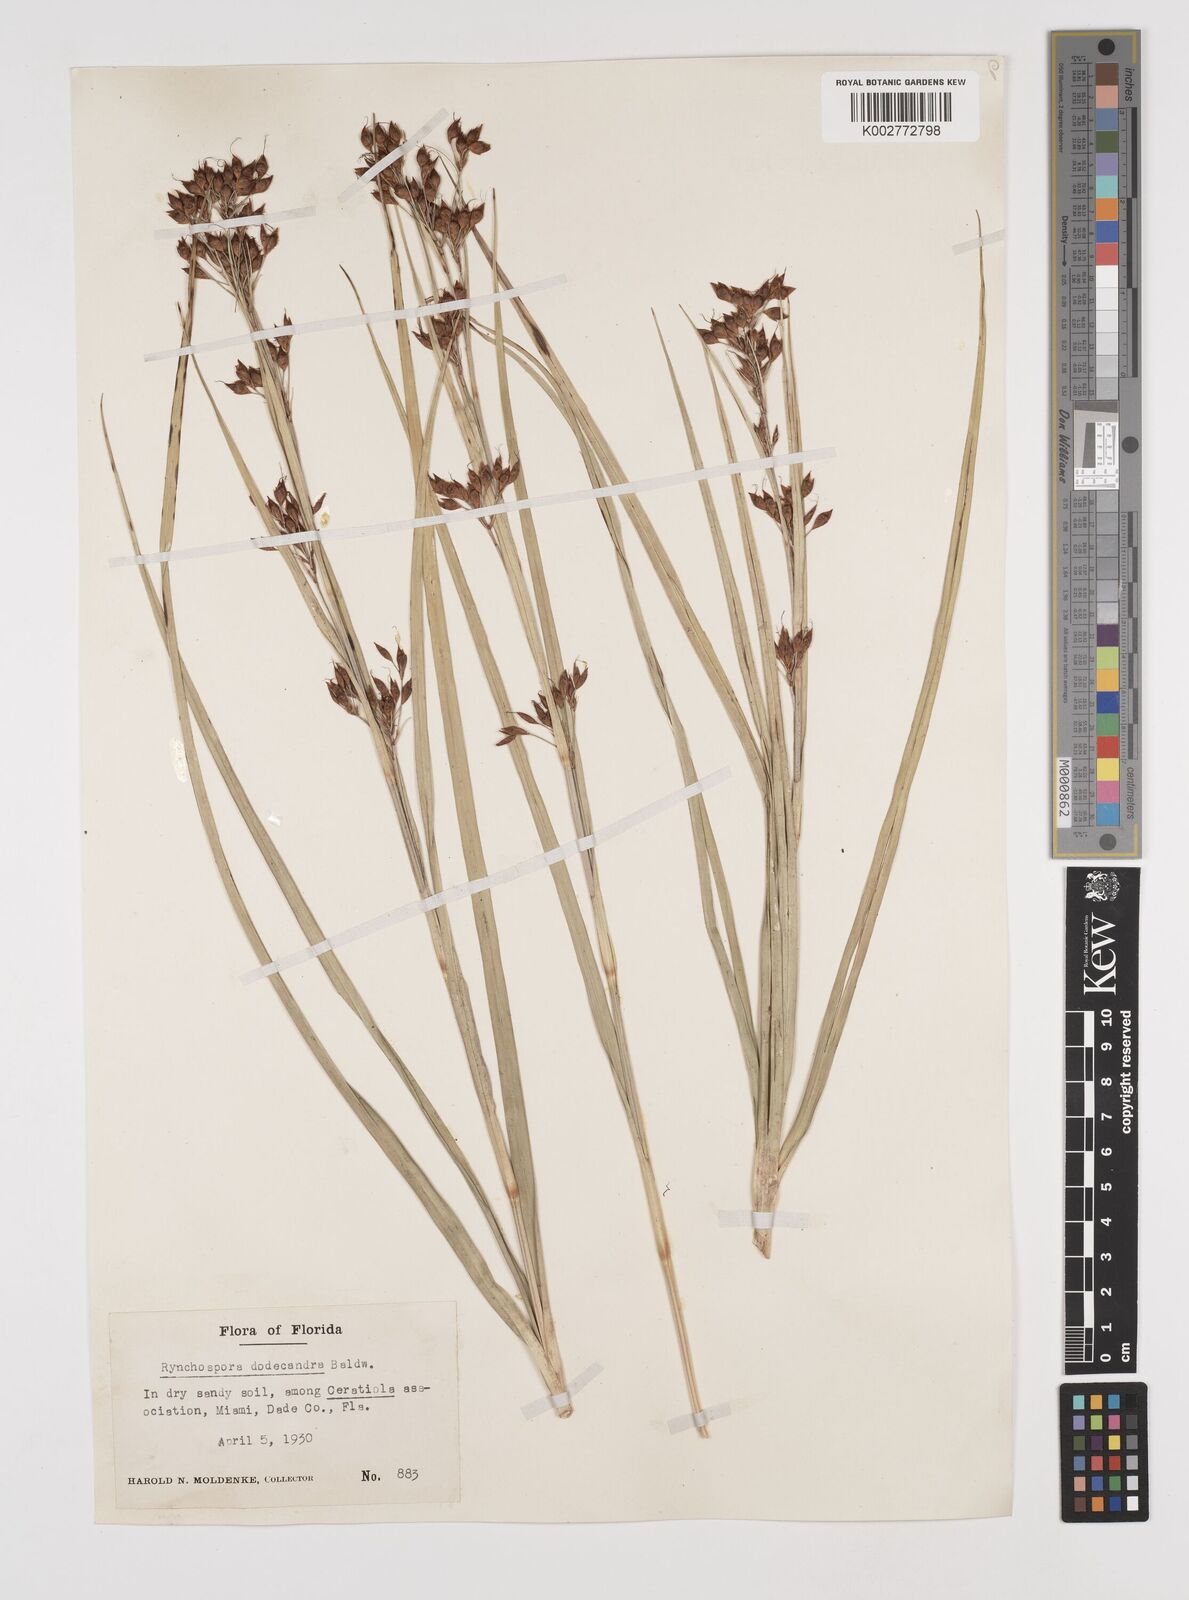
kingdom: Plantae
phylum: Tracheophyta
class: Liliopsida
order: Poales
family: Cyperaceae
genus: Rhynchospora
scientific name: Rhynchospora megalocarpa
